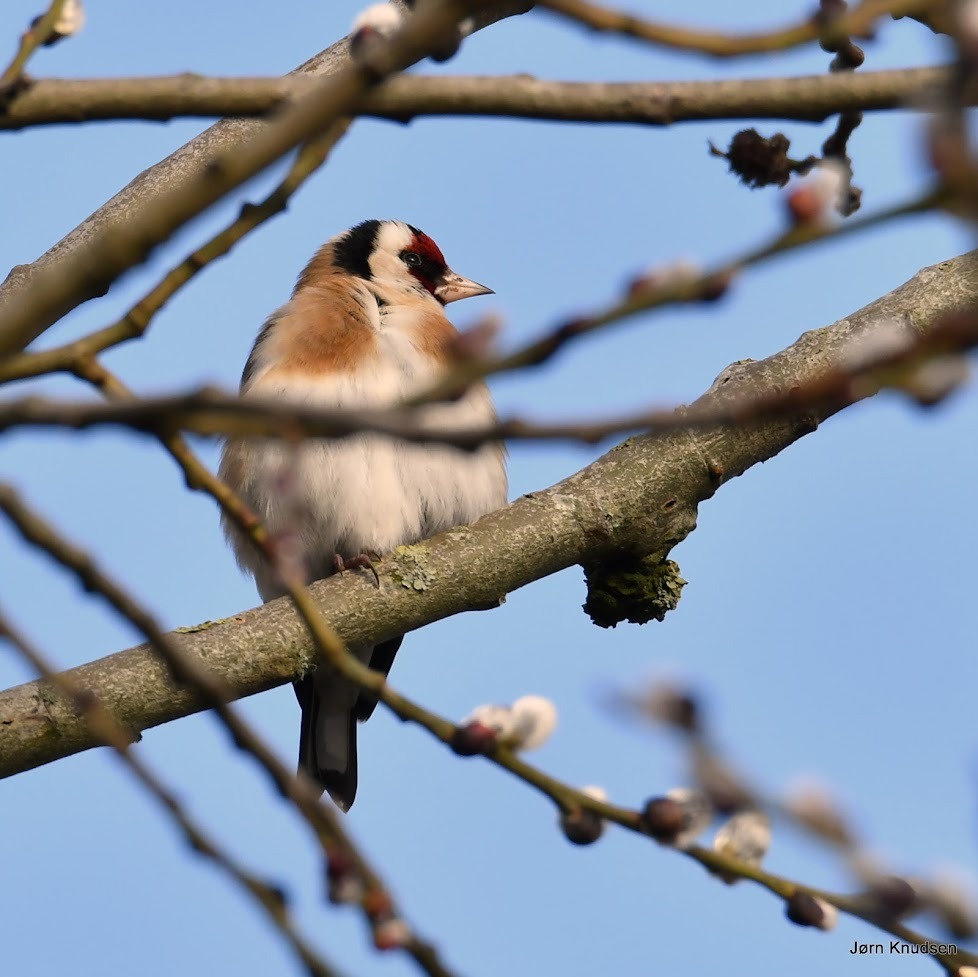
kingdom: Animalia
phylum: Chordata
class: Aves
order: Passeriformes
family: Fringillidae
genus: Carduelis
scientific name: Carduelis carduelis
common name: Stillits
